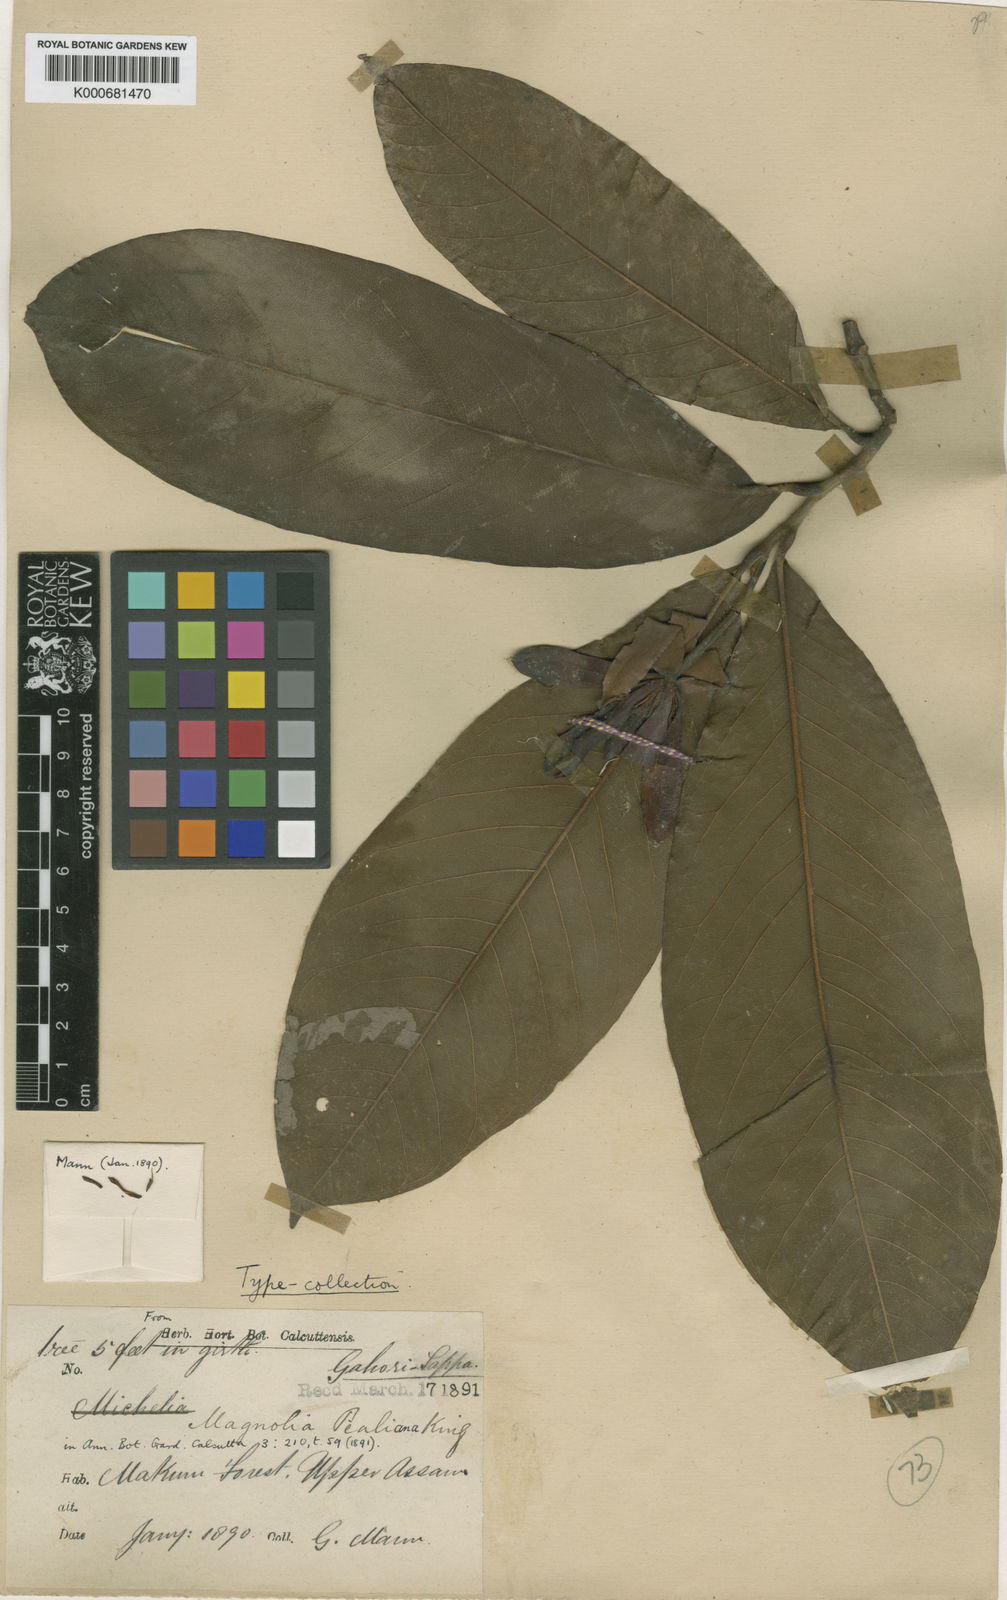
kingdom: Plantae
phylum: Tracheophyta
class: Magnoliopsida
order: Magnoliales
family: Magnoliaceae
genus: Magnolia
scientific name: Magnolia pealiana
